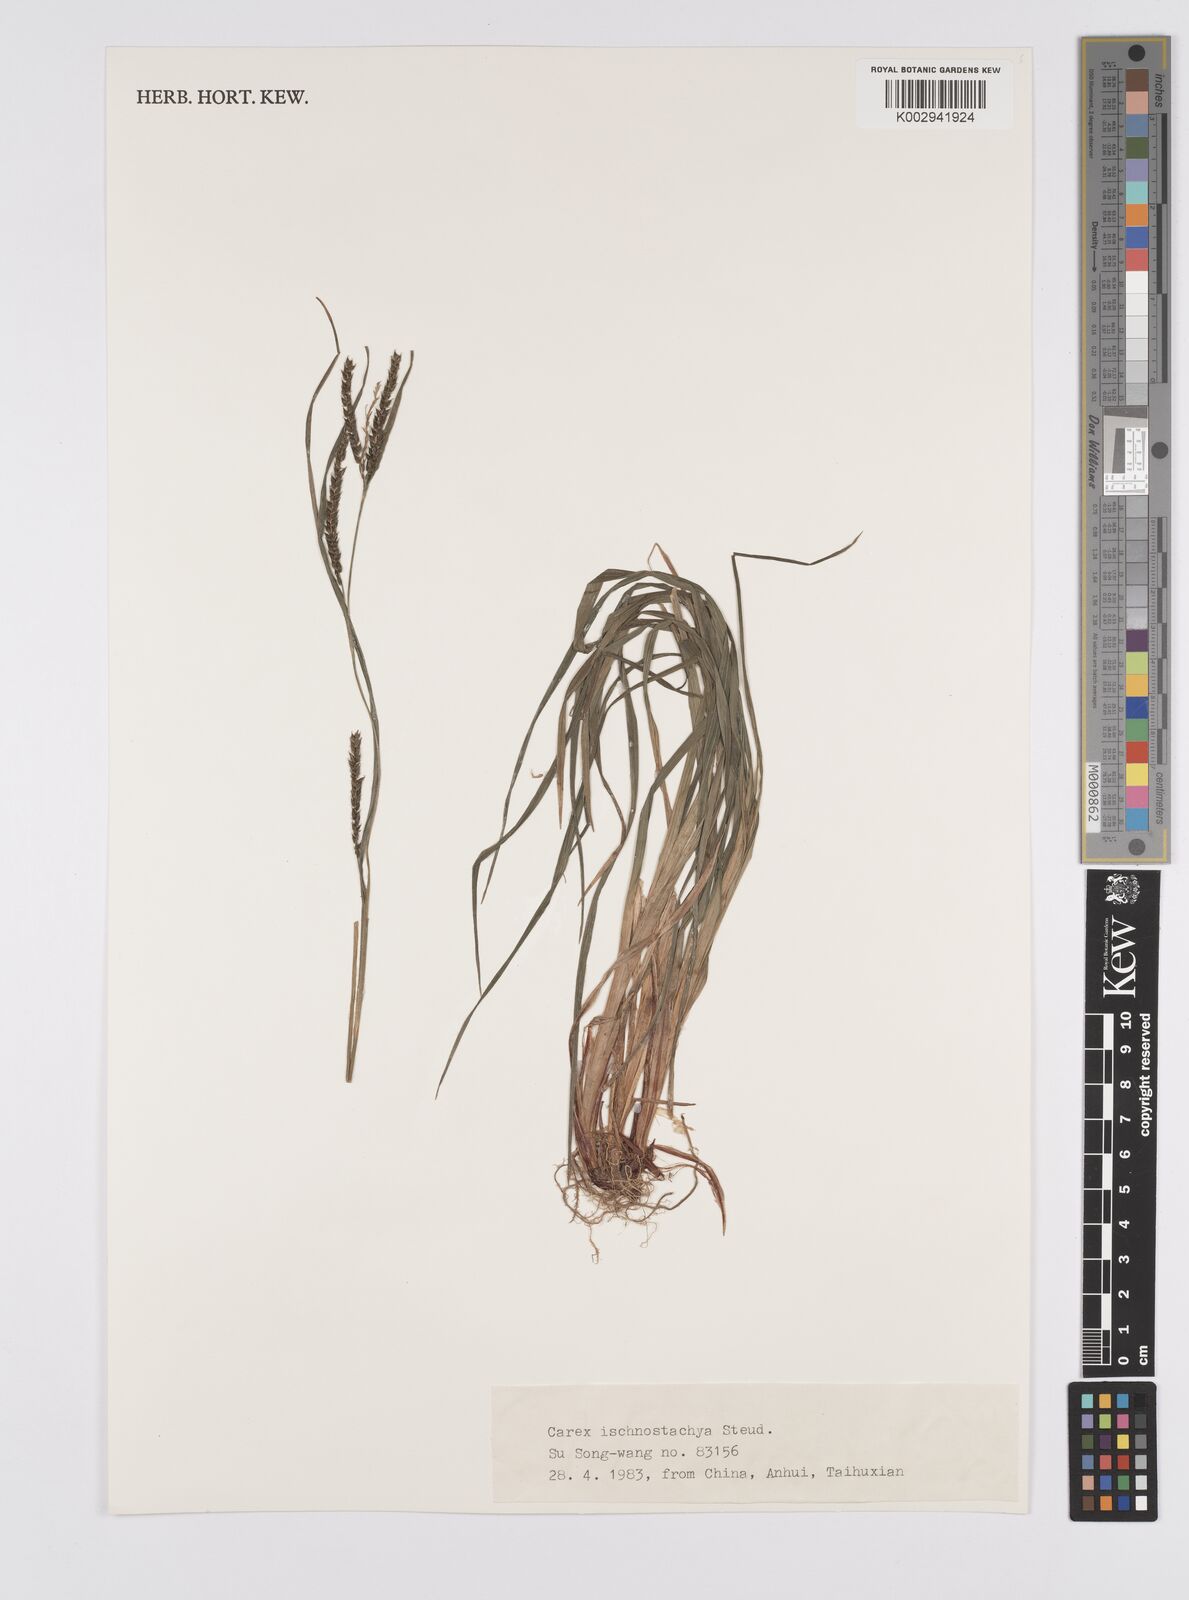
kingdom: Plantae
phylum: Tracheophyta
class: Liliopsida
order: Poales
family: Cyperaceae
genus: Carex
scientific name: Carex ischnostachya
